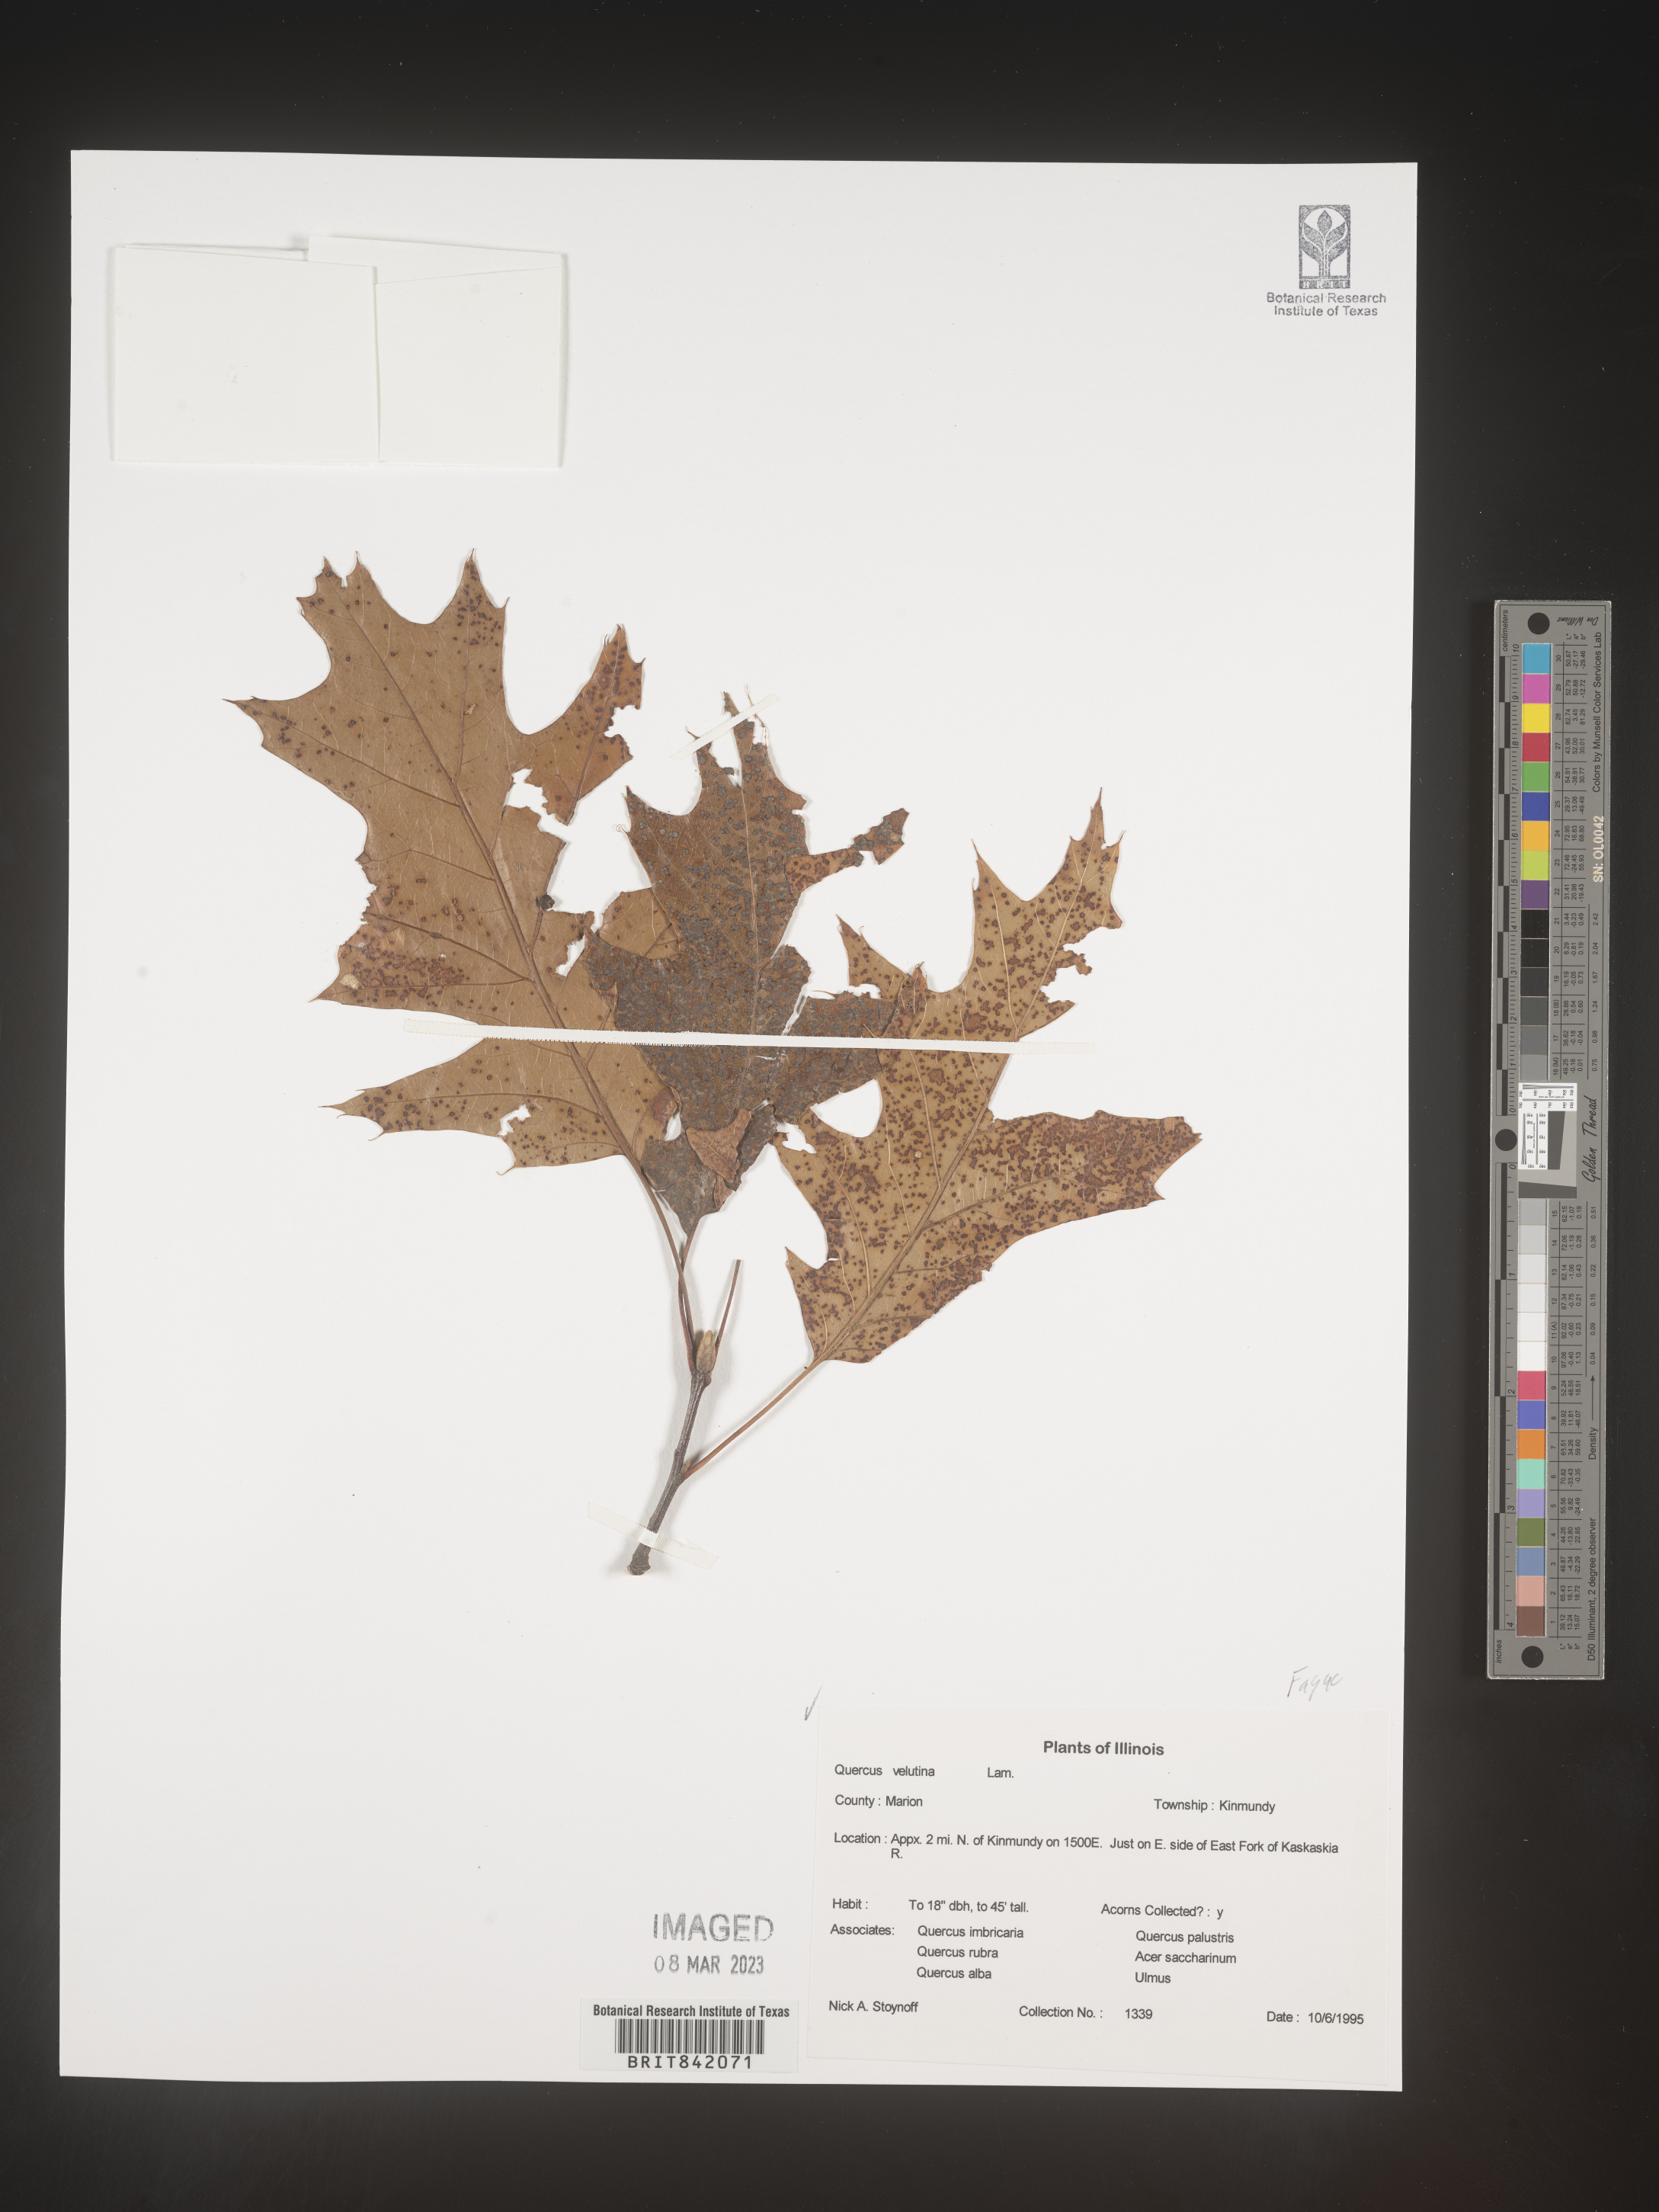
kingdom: Plantae
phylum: Tracheophyta
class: Magnoliopsida
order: Fagales
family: Fagaceae
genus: Quercus
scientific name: Quercus velutina
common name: Black oak
